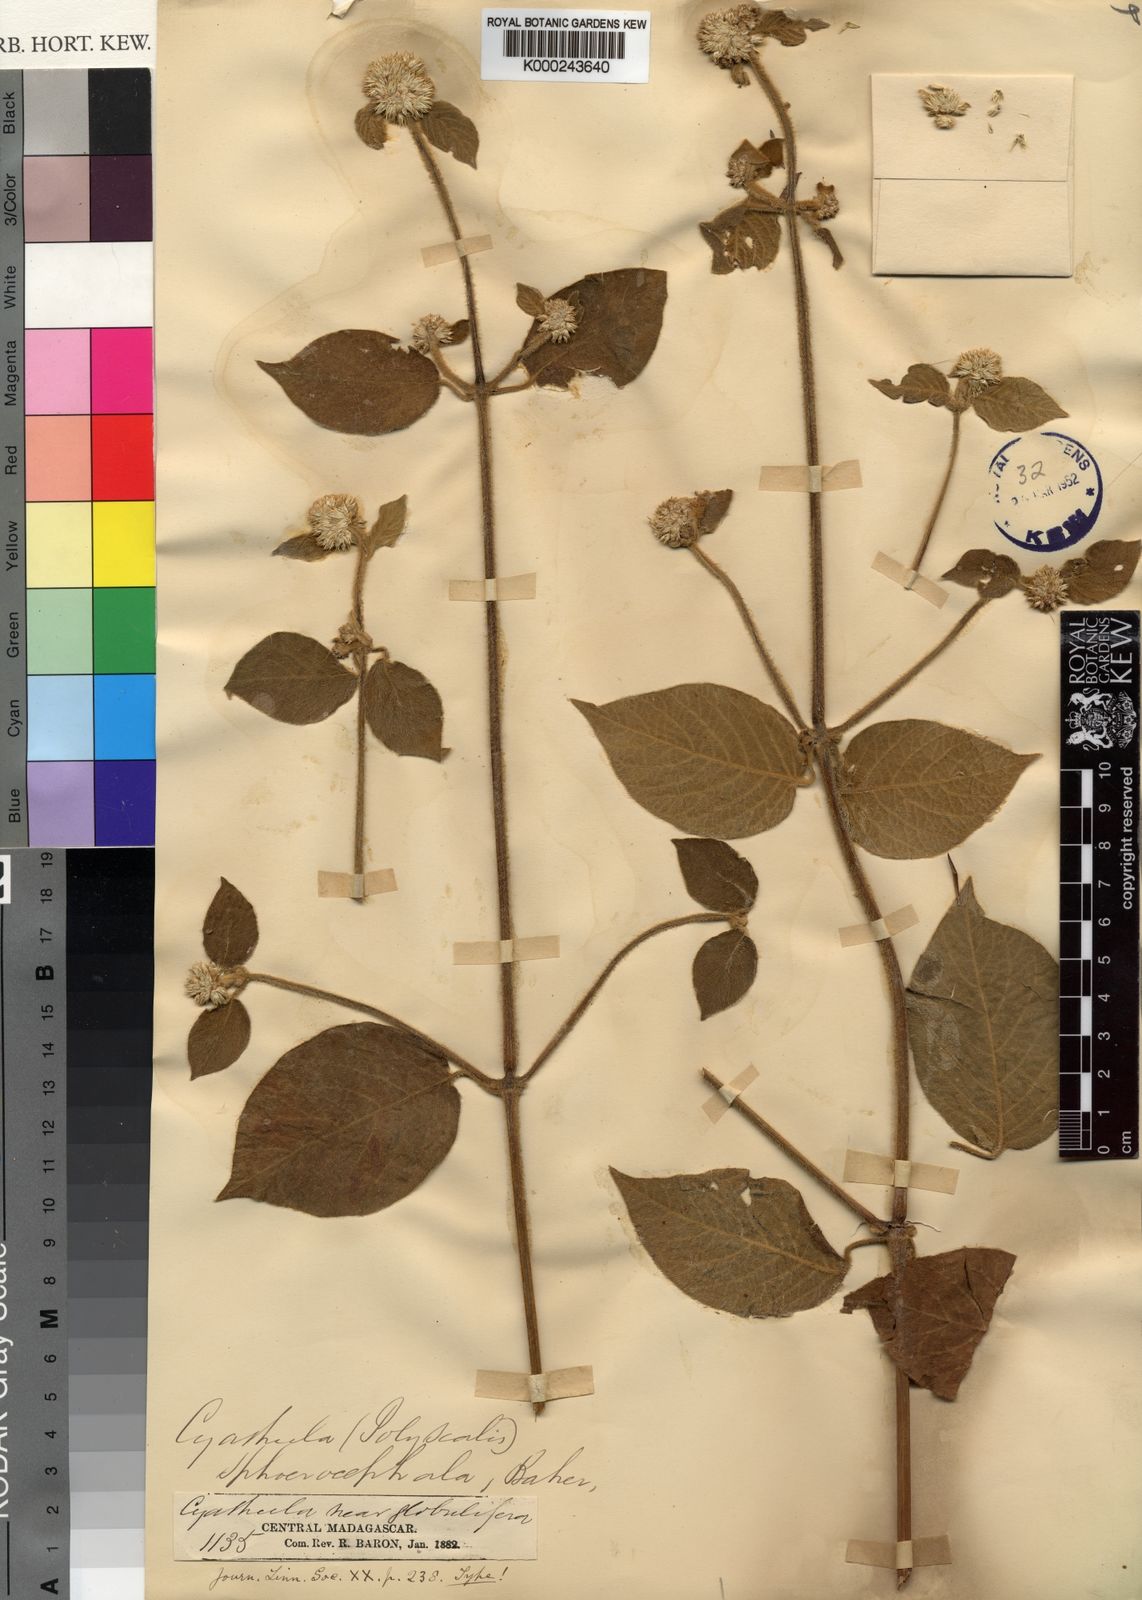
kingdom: Plantae
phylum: Tracheophyta
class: Magnoliopsida
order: Caryophyllales
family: Amaranthaceae
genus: Cyathula
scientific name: Cyathula uncinulata
